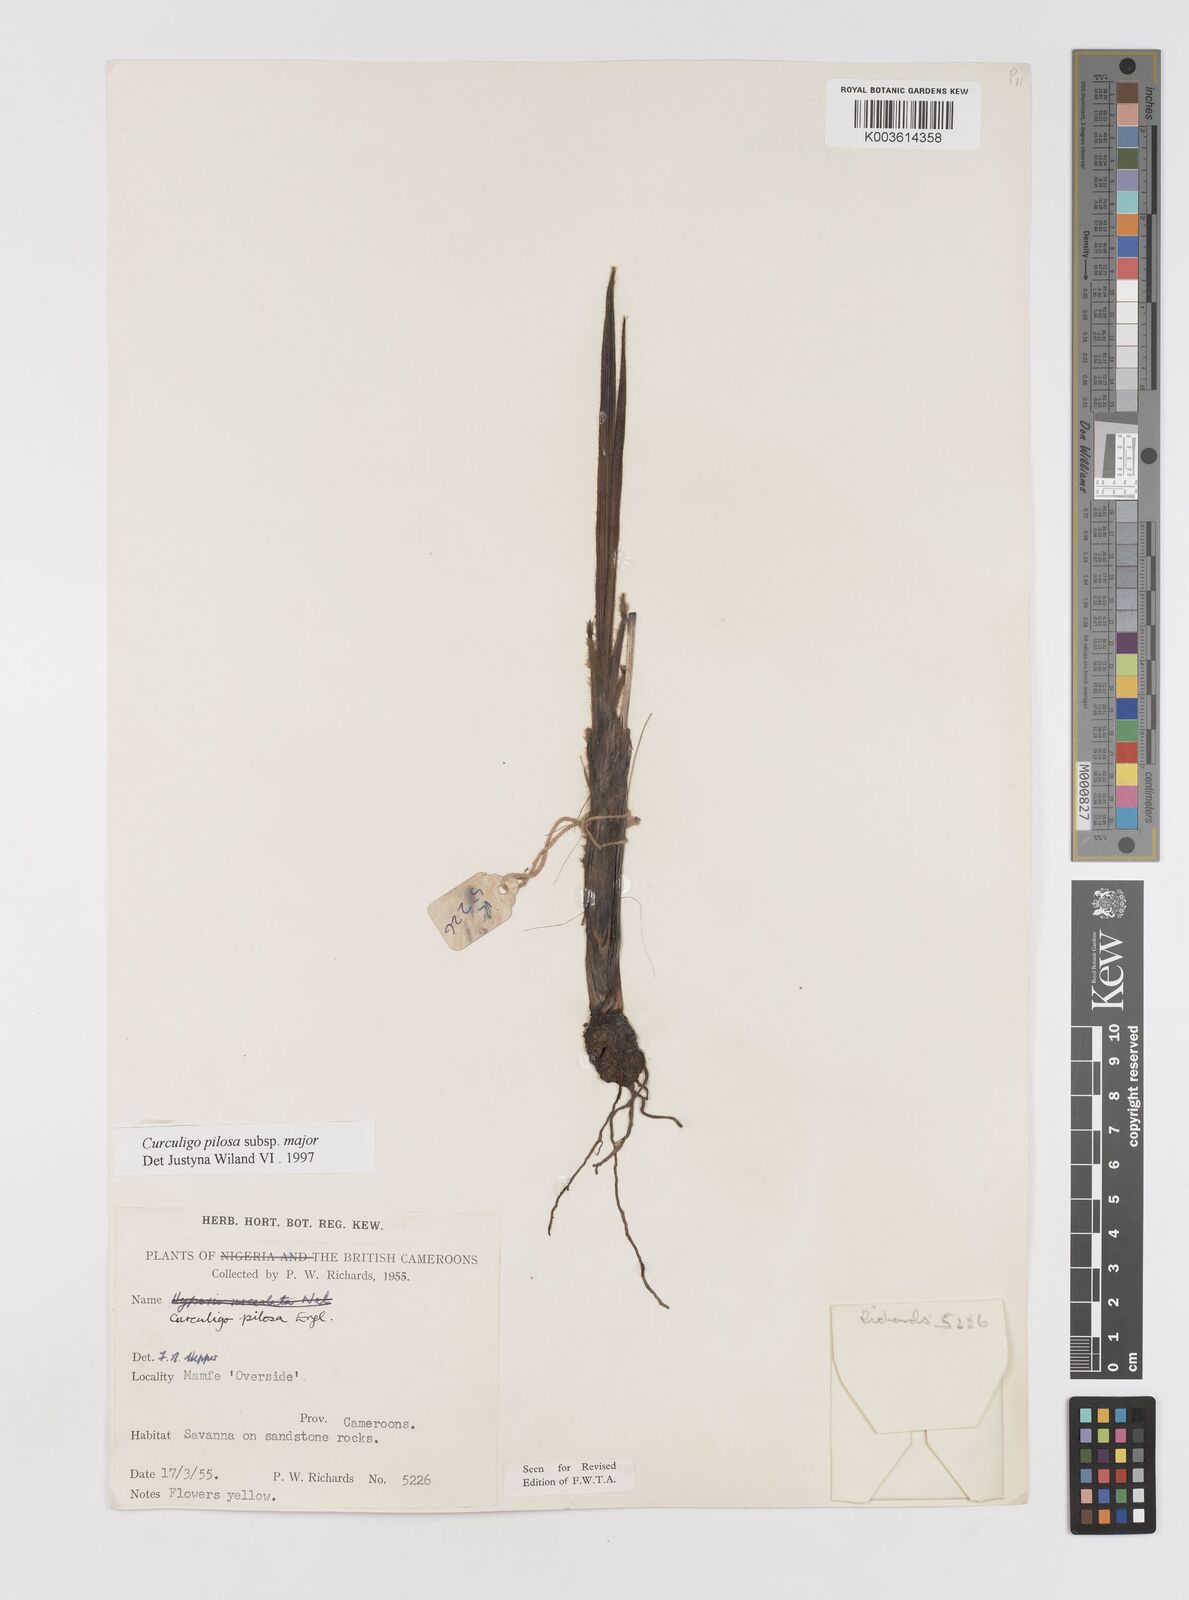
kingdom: Plantae
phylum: Tracheophyta
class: Liliopsida
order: Asparagales
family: Hypoxidaceae
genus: Curculigo
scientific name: Curculigo pilosa
